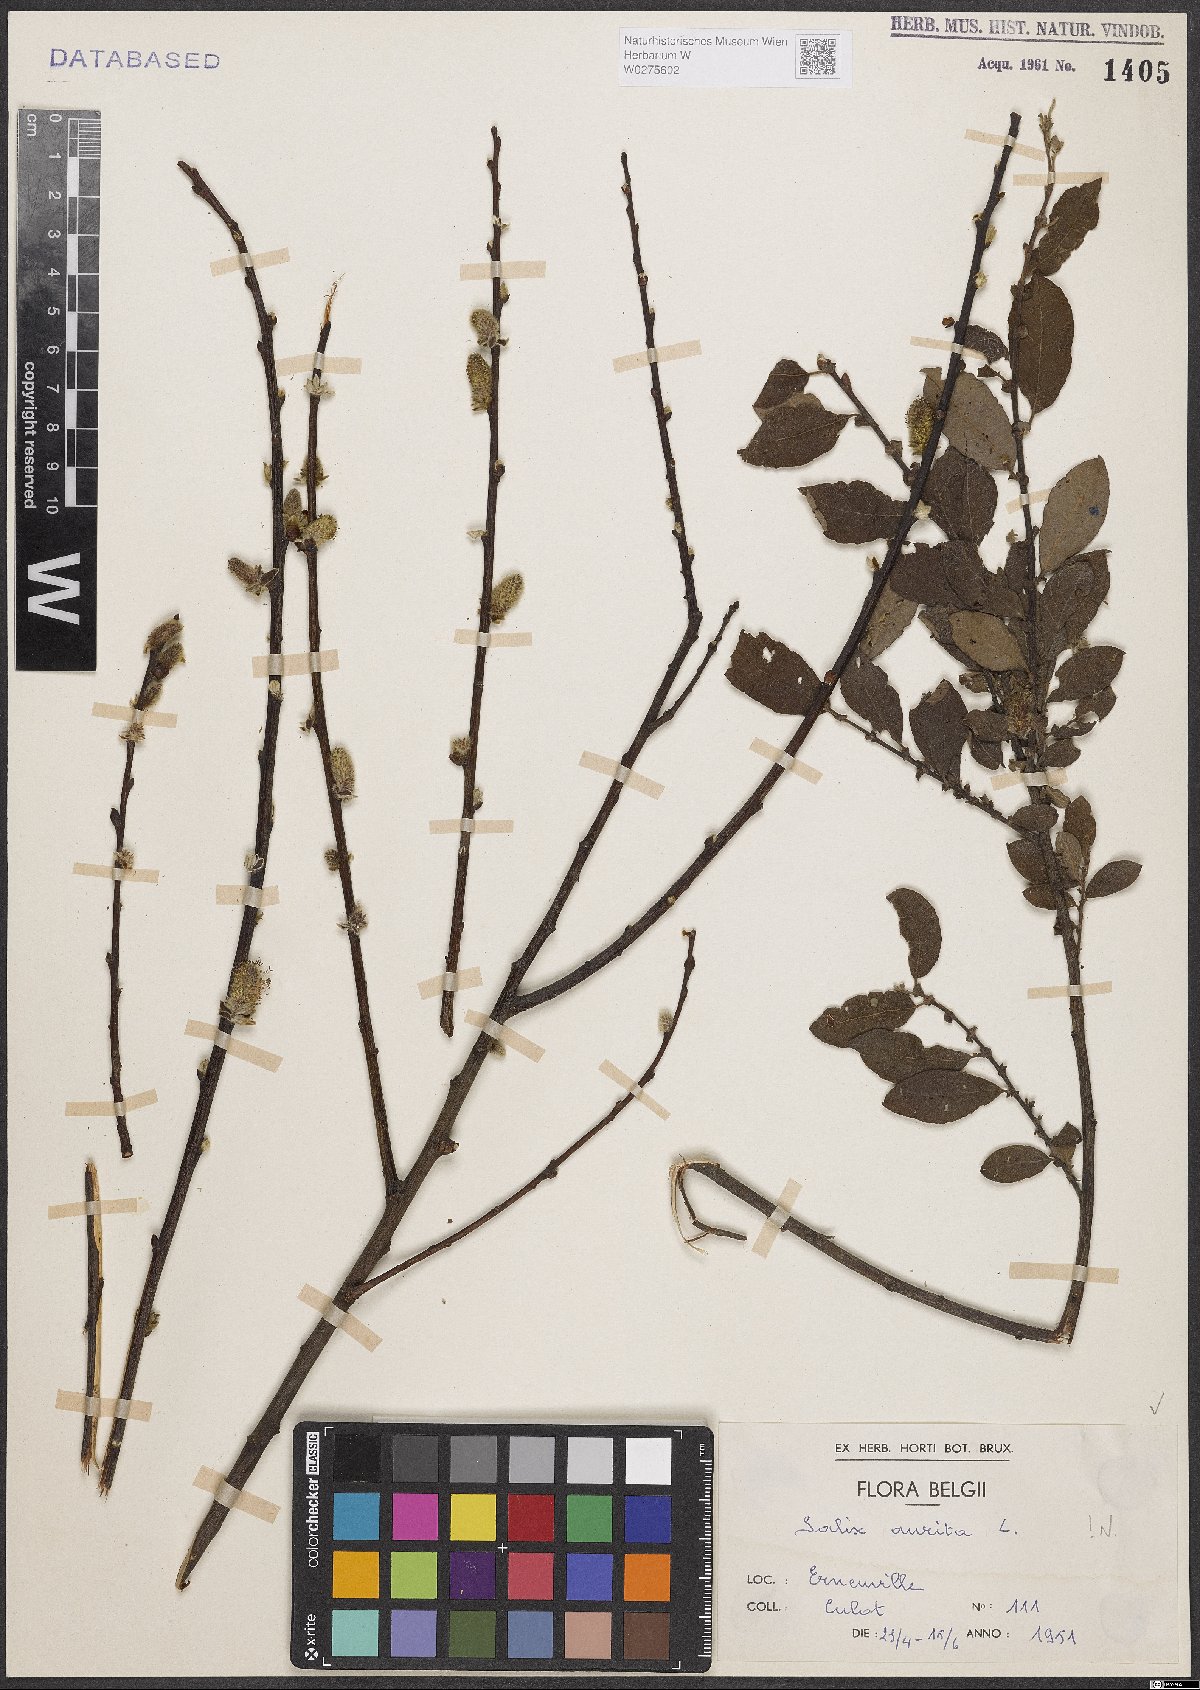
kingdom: Plantae
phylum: Tracheophyta
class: Magnoliopsida
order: Malpighiales
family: Salicaceae
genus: Salix
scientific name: Salix aurita
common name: Eared willow
